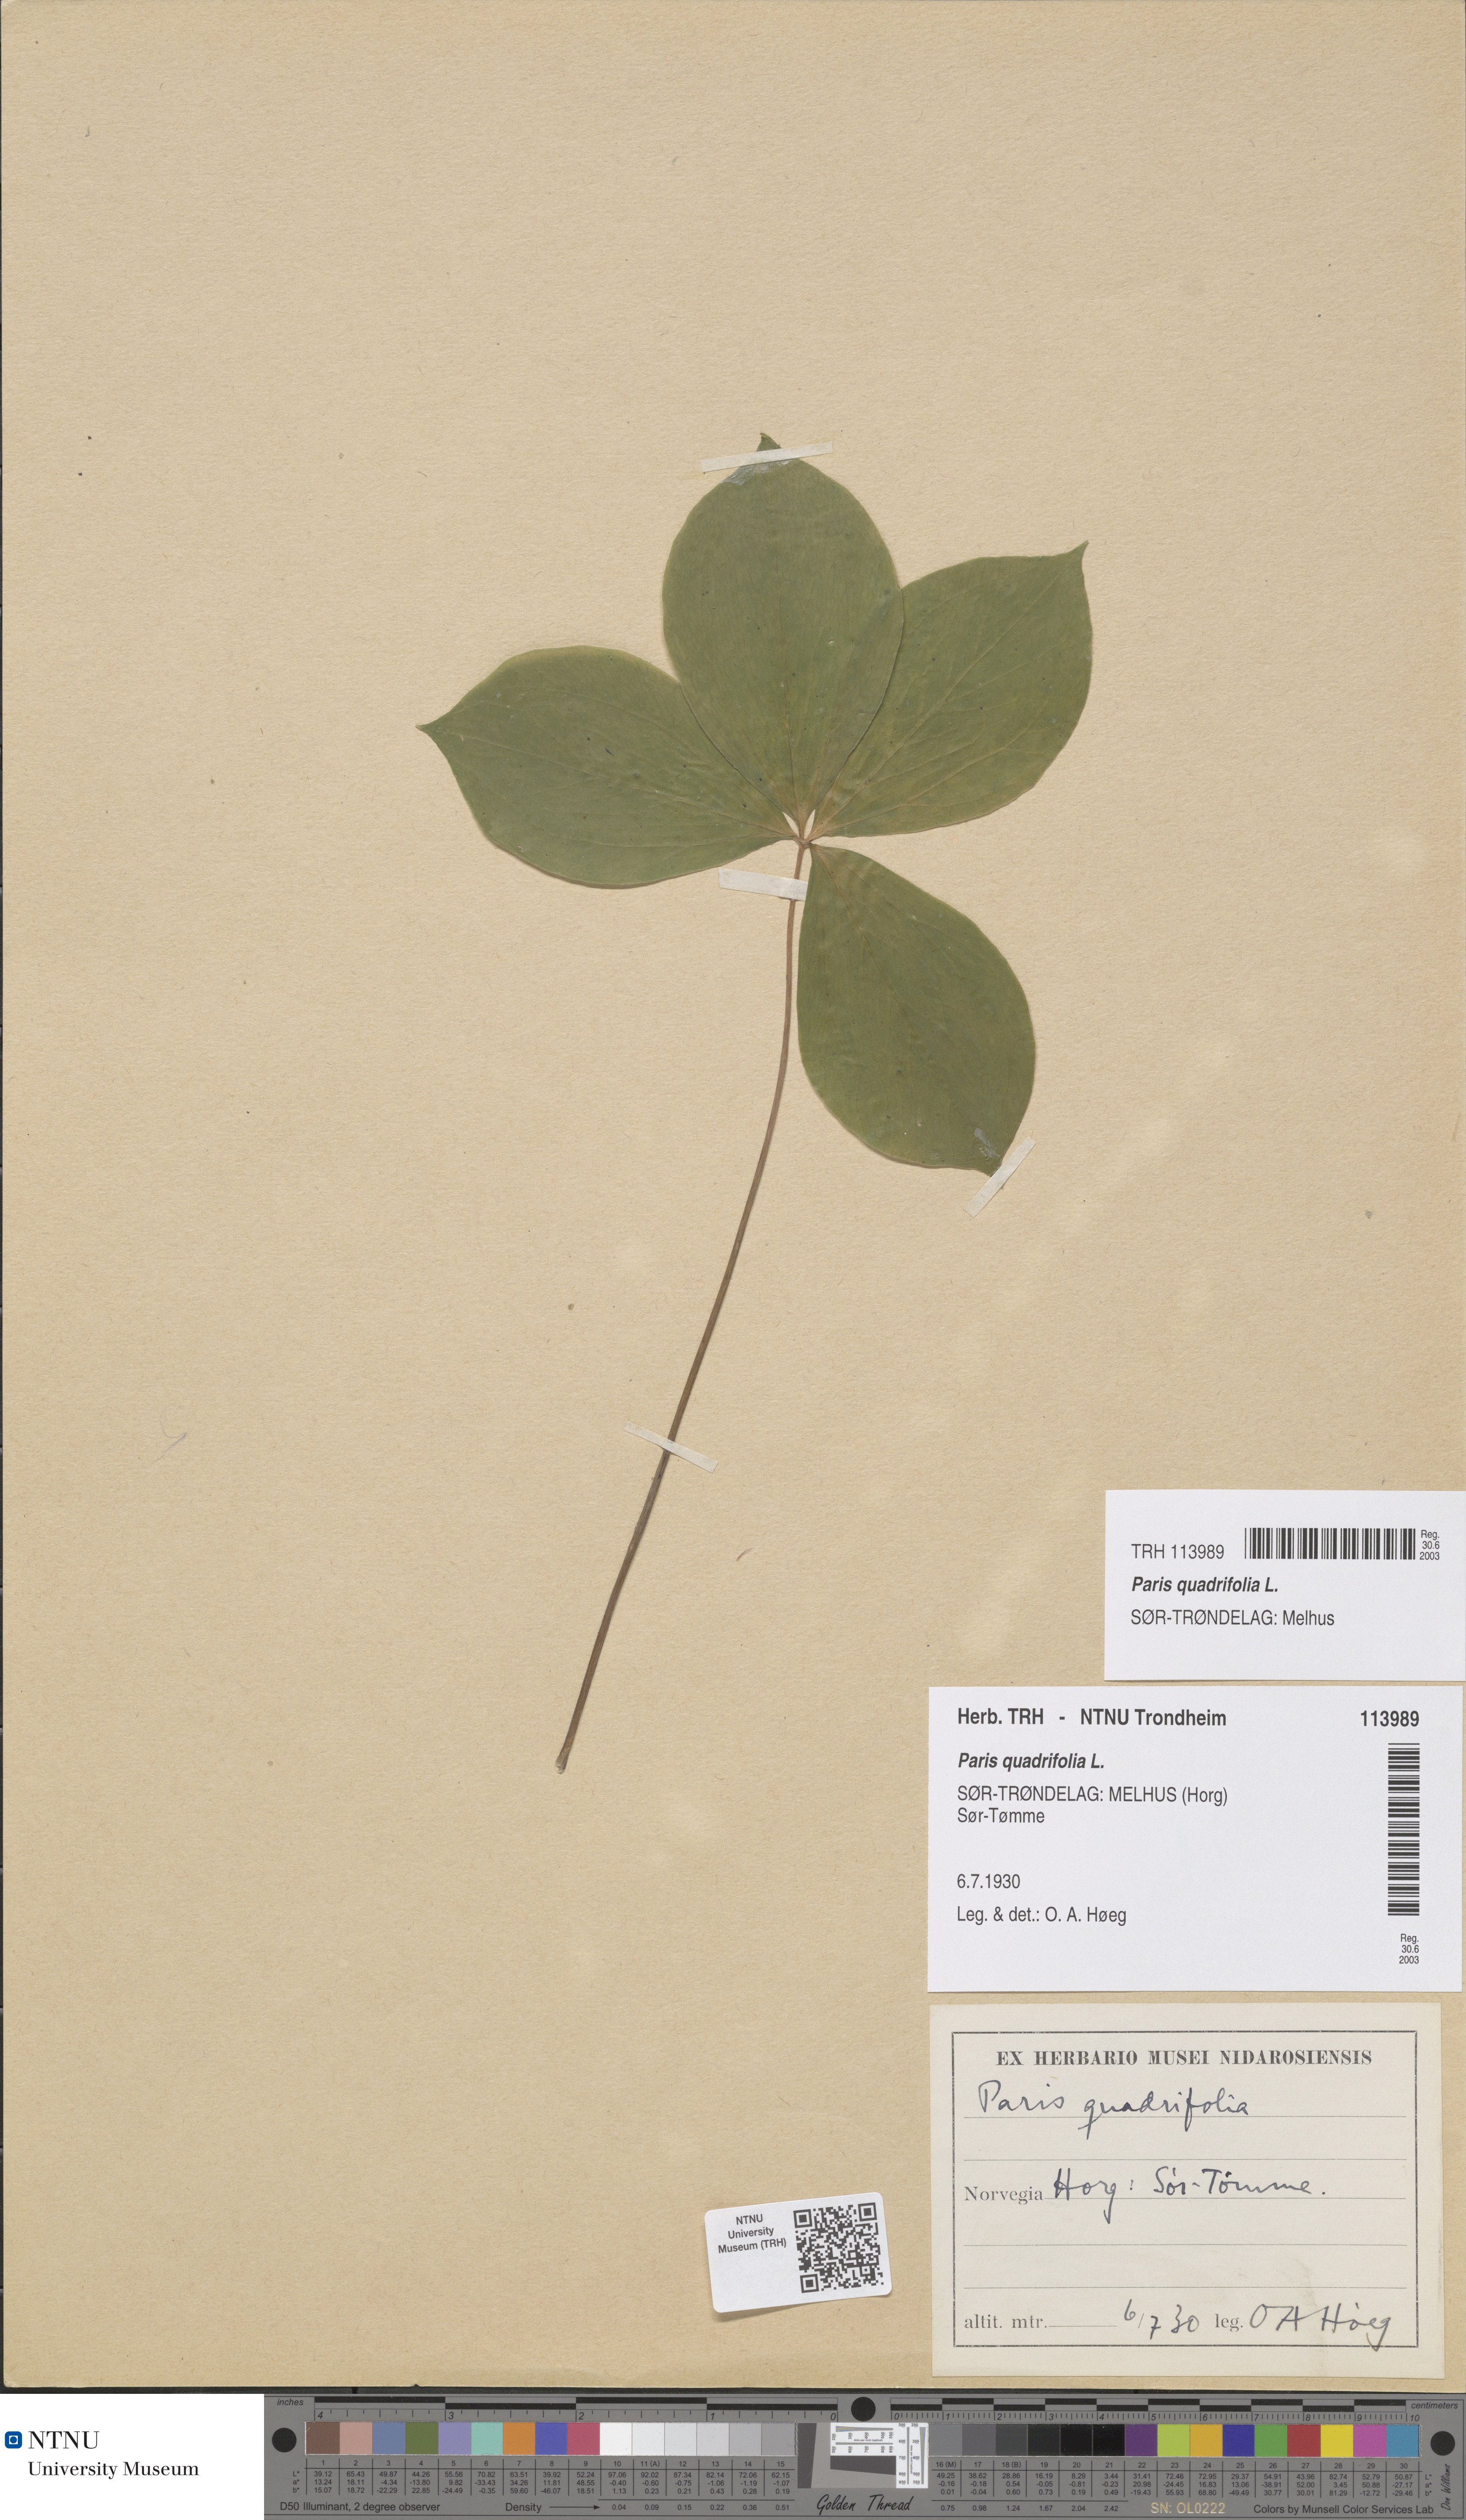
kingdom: Plantae
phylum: Tracheophyta
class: Liliopsida
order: Liliales
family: Melanthiaceae
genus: Paris
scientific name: Paris quadrifolia
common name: Herb-paris
